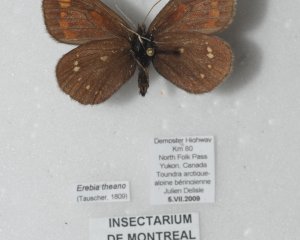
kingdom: Animalia
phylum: Arthropoda
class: Insecta
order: Lepidoptera
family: Nymphalidae
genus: Erebia
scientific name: Erebia pawloskii
